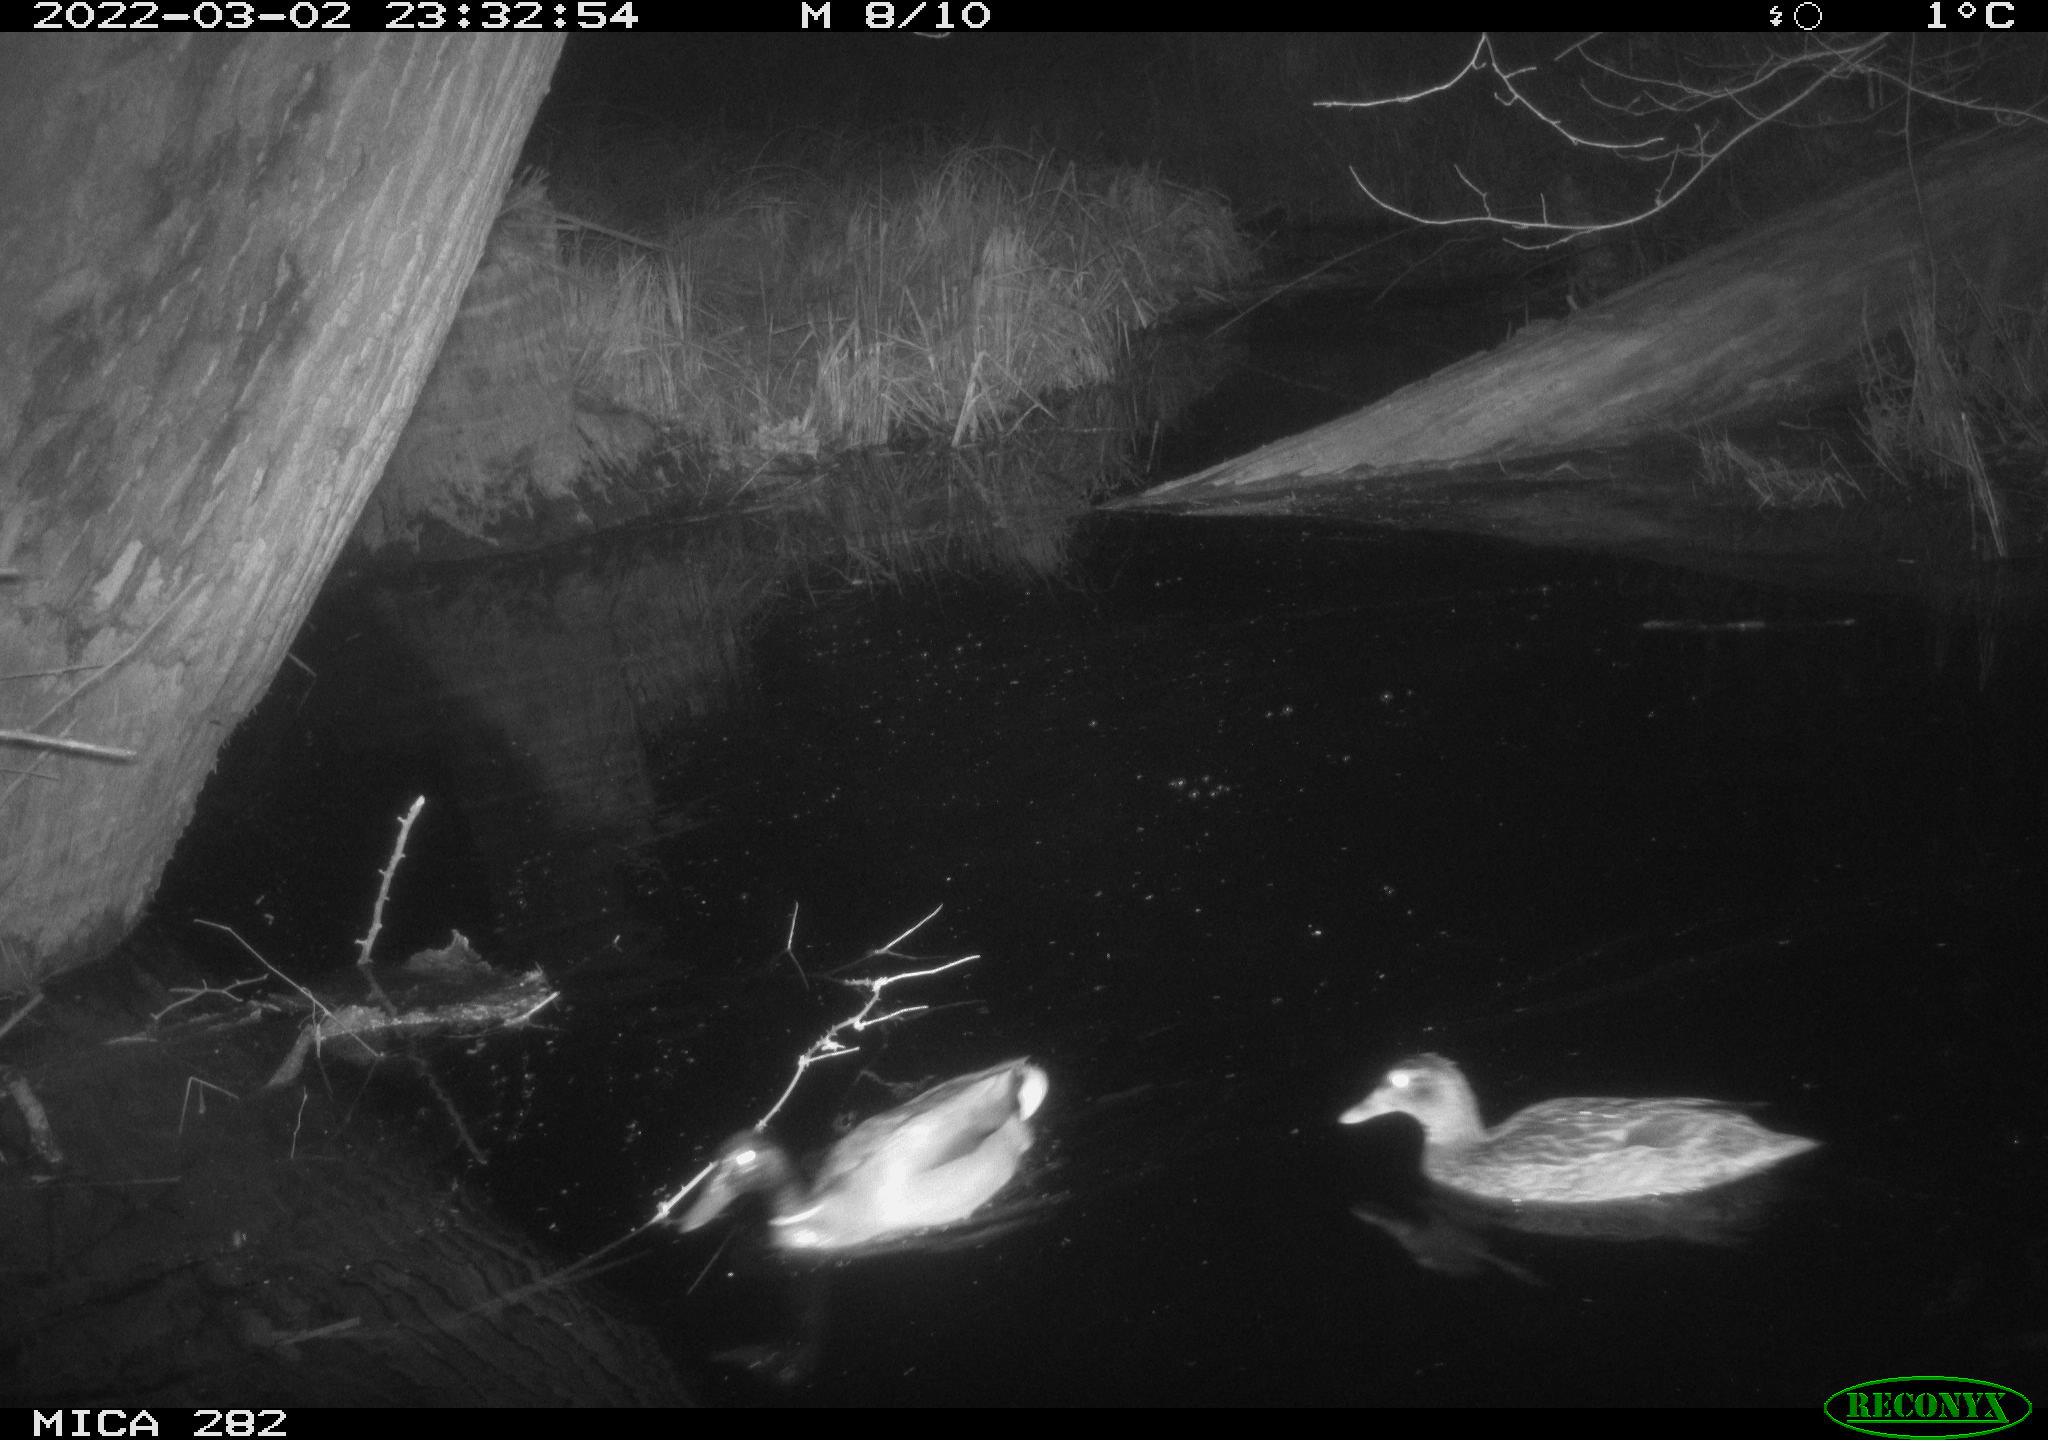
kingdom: Animalia
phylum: Chordata
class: Aves
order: Anseriformes
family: Anatidae
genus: Anas
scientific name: Anas platyrhynchos
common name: Mallard
